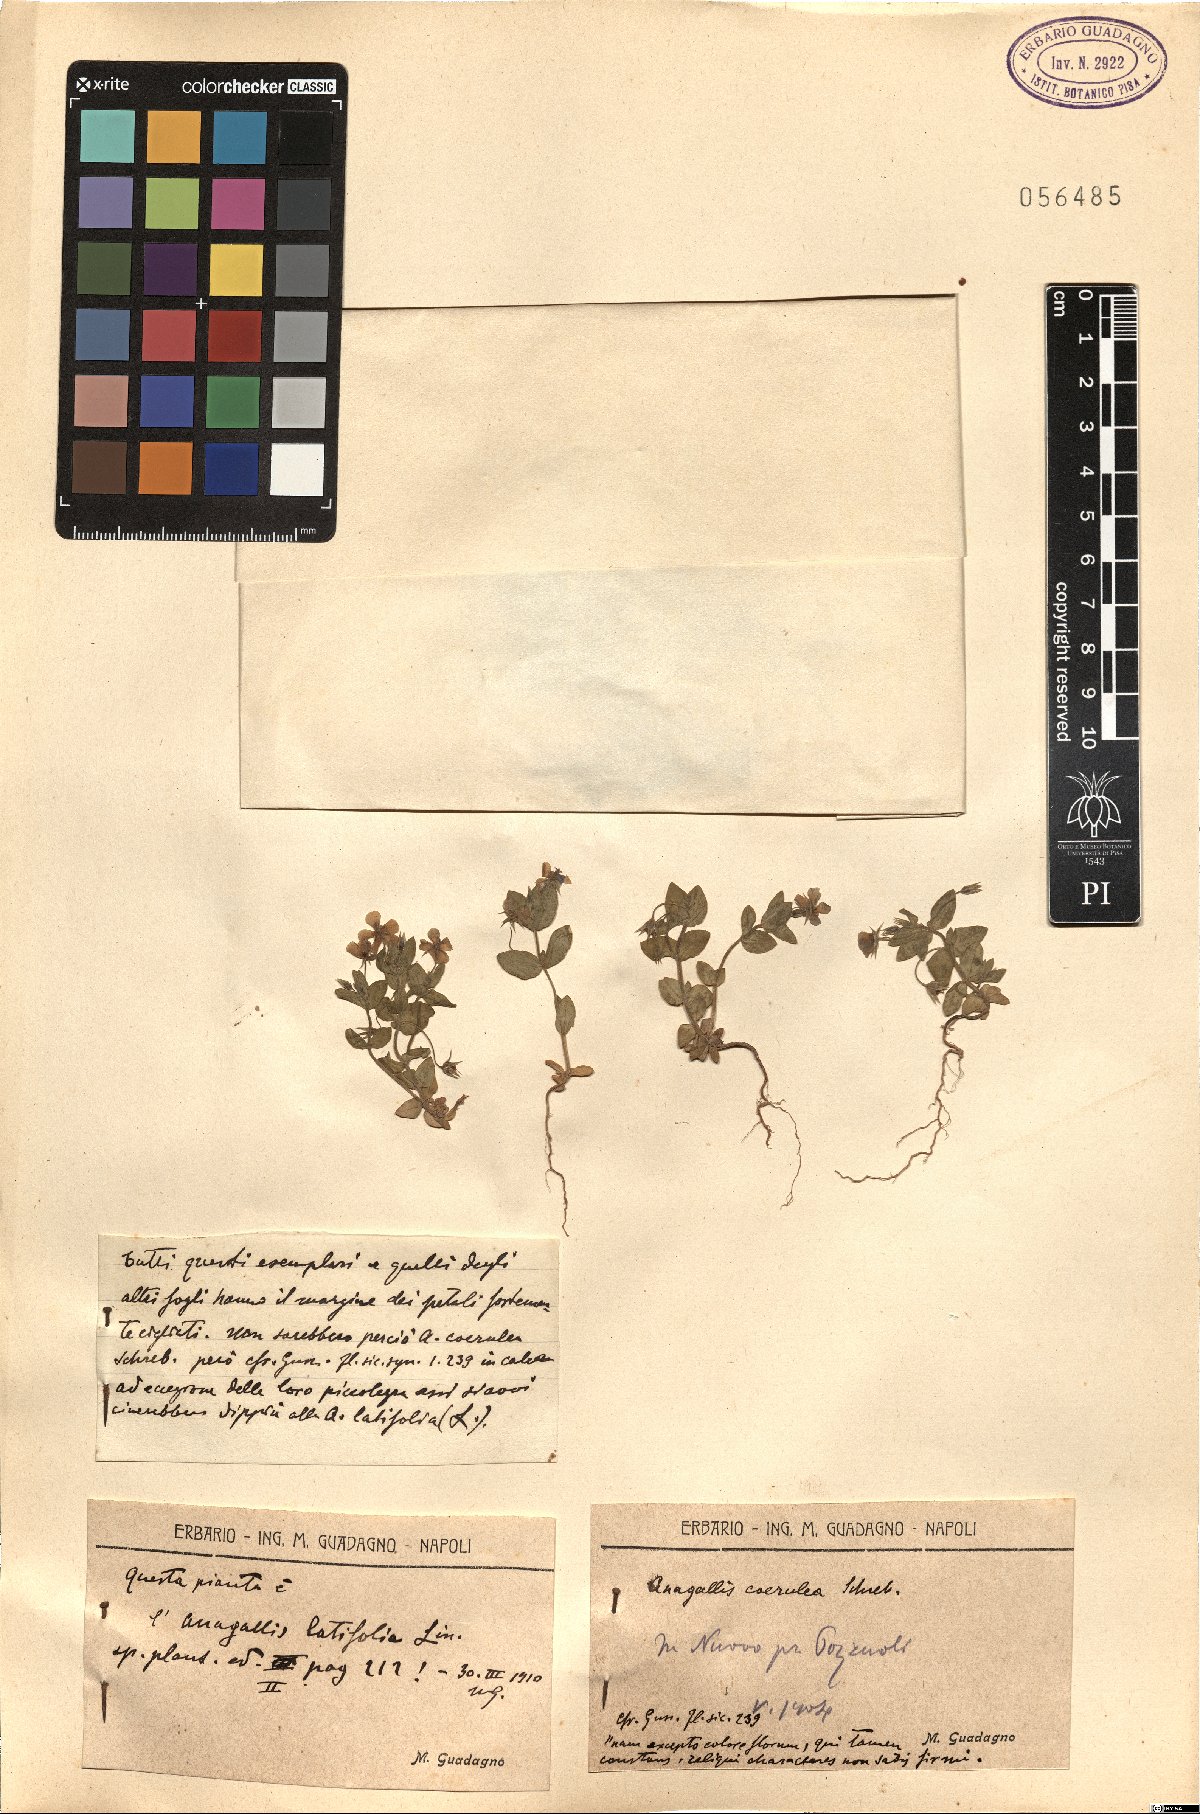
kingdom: Plantae
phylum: Tracheophyta
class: Magnoliopsida
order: Ericales
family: Primulaceae
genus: Lysimachia
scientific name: Lysimachia loeflingii
